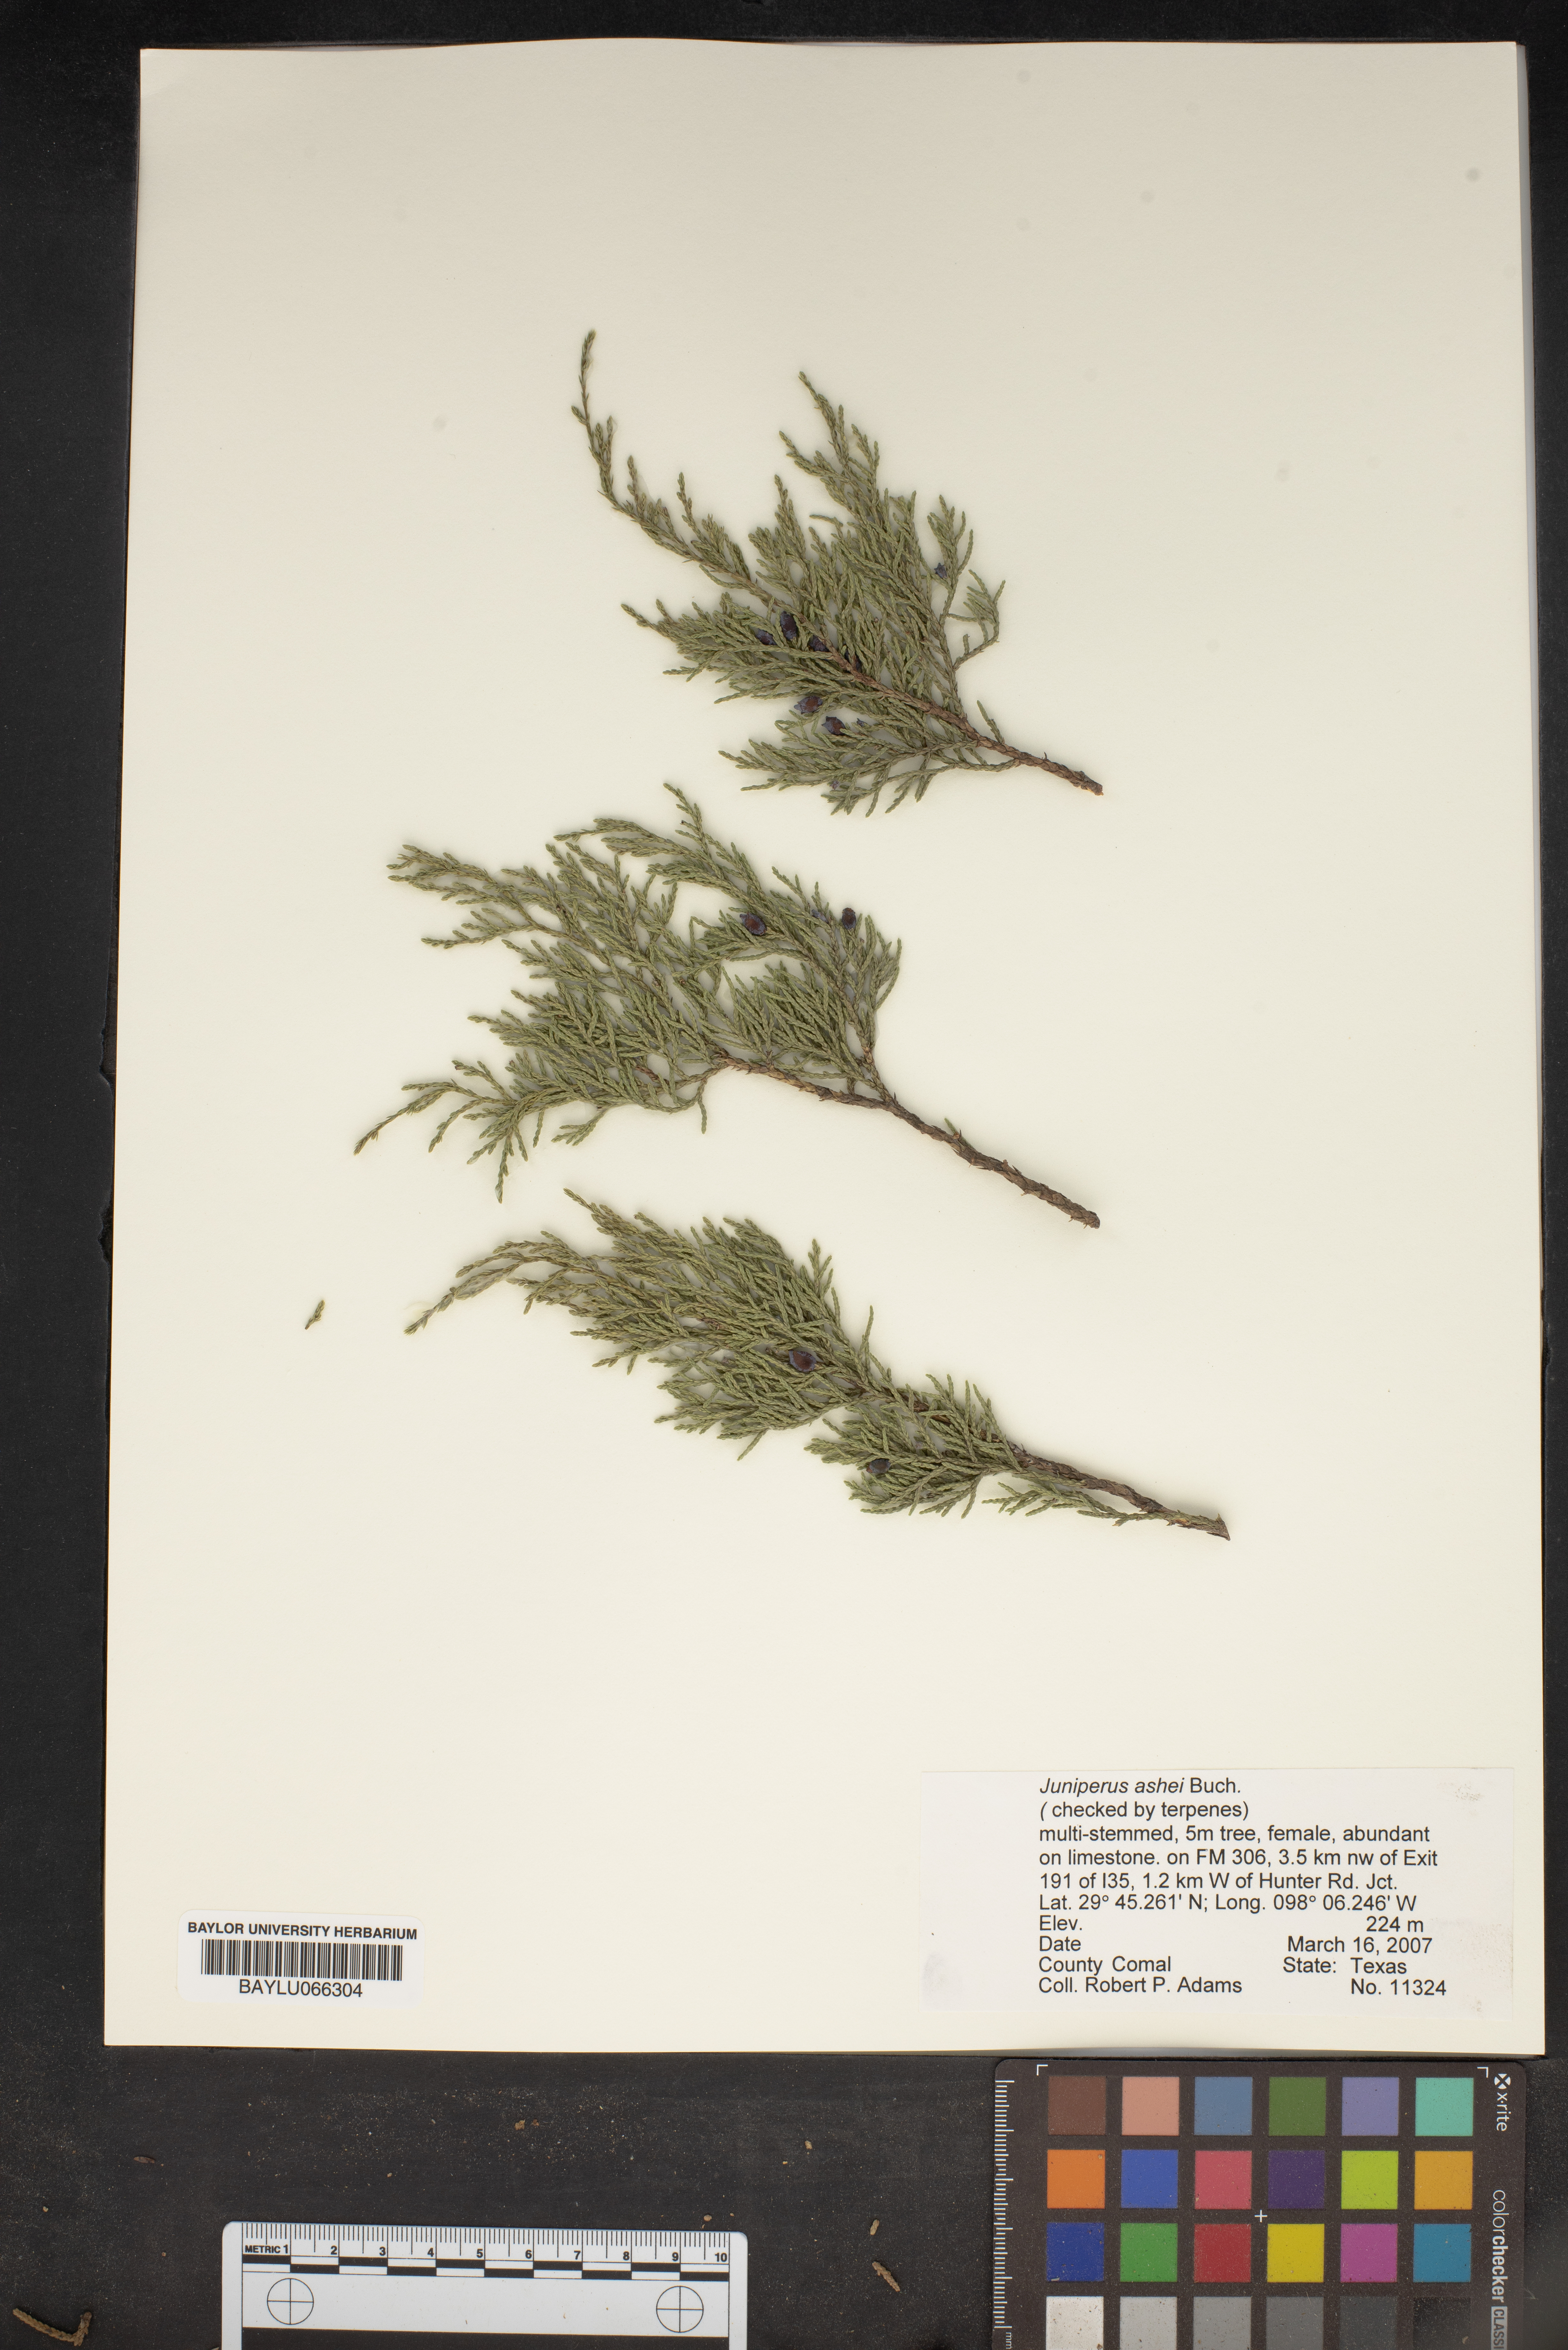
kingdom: Plantae
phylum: Tracheophyta
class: Pinopsida
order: Pinales
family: Cupressaceae
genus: Juniperus
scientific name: Juniperus ashei
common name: Mexican juniper
